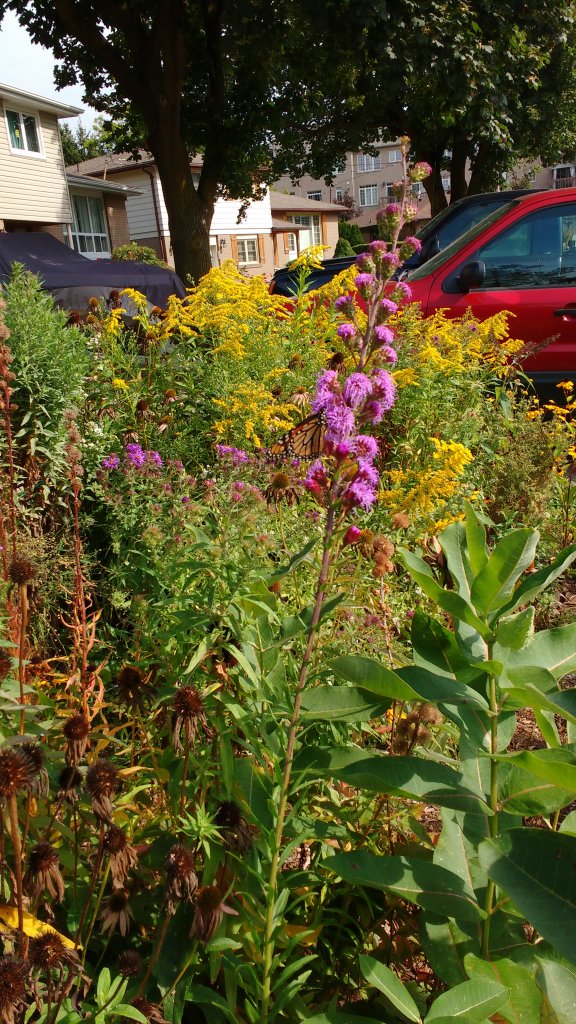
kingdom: Animalia
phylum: Arthropoda
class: Insecta
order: Lepidoptera
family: Nymphalidae
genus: Danaus
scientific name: Danaus plexippus
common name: Monarch
